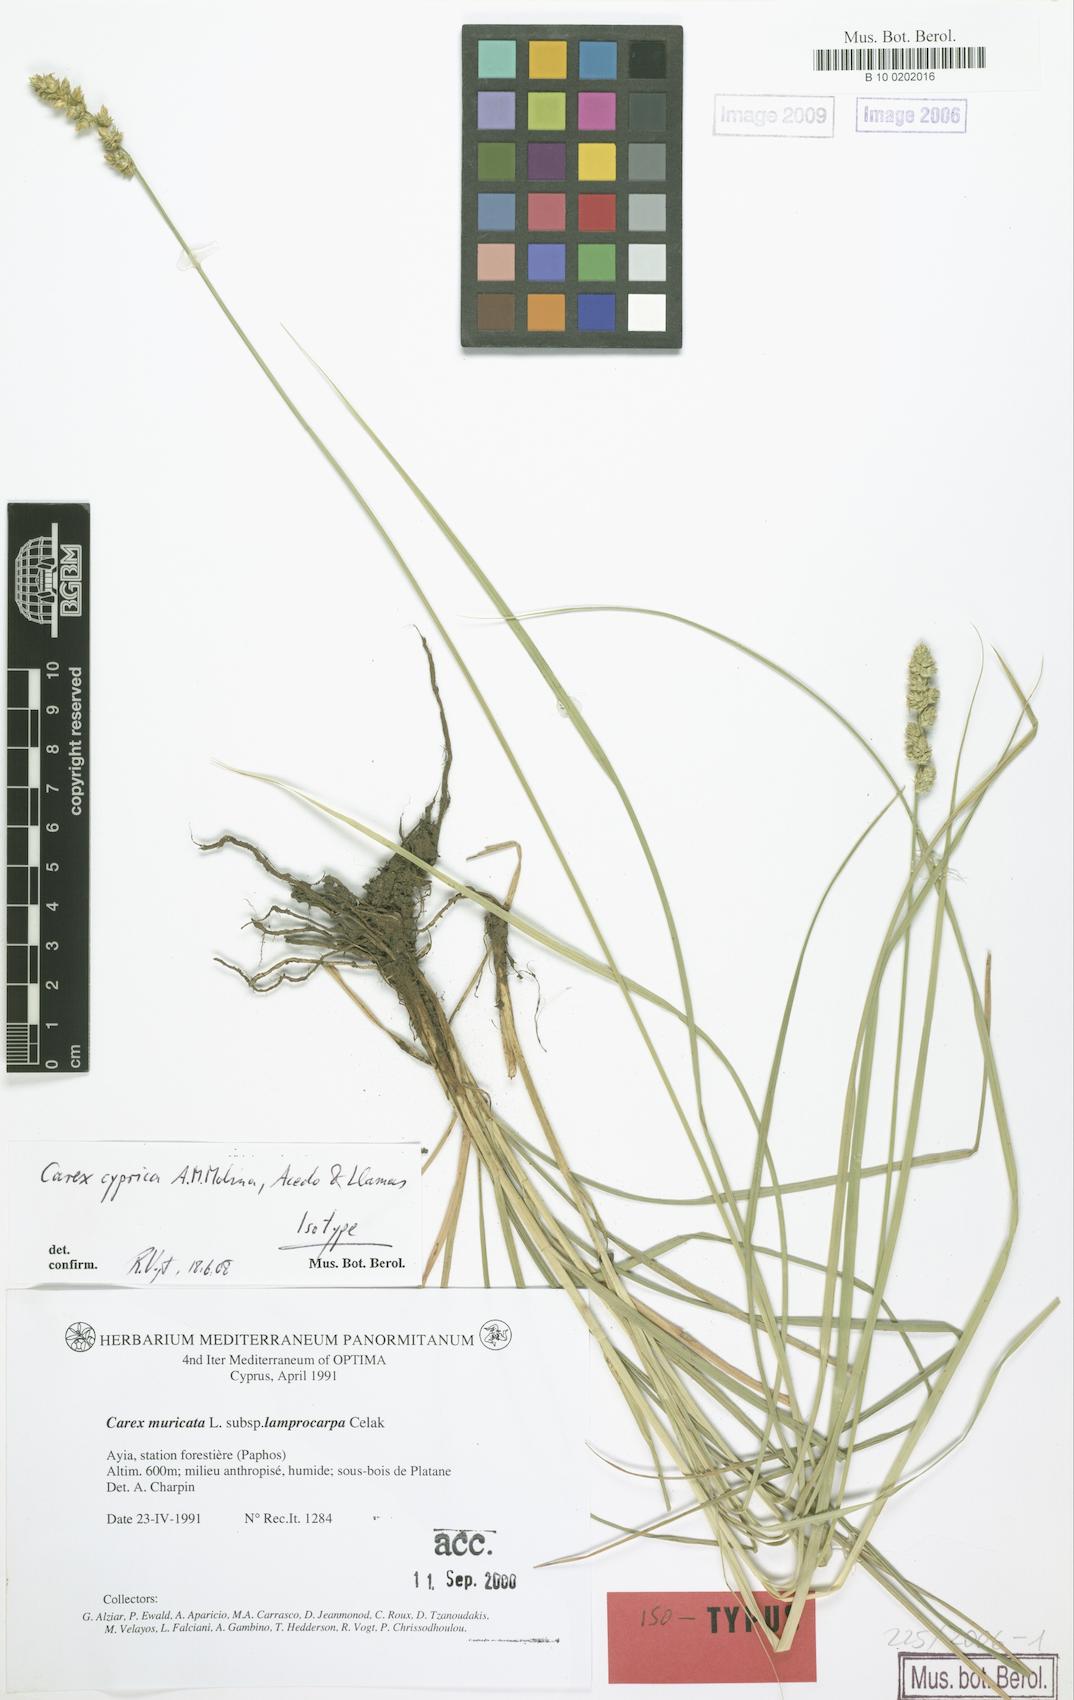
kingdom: Plantae
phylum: Tracheophyta
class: Liliopsida
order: Poales
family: Cyperaceae
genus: Carex
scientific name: Carex cyprica
